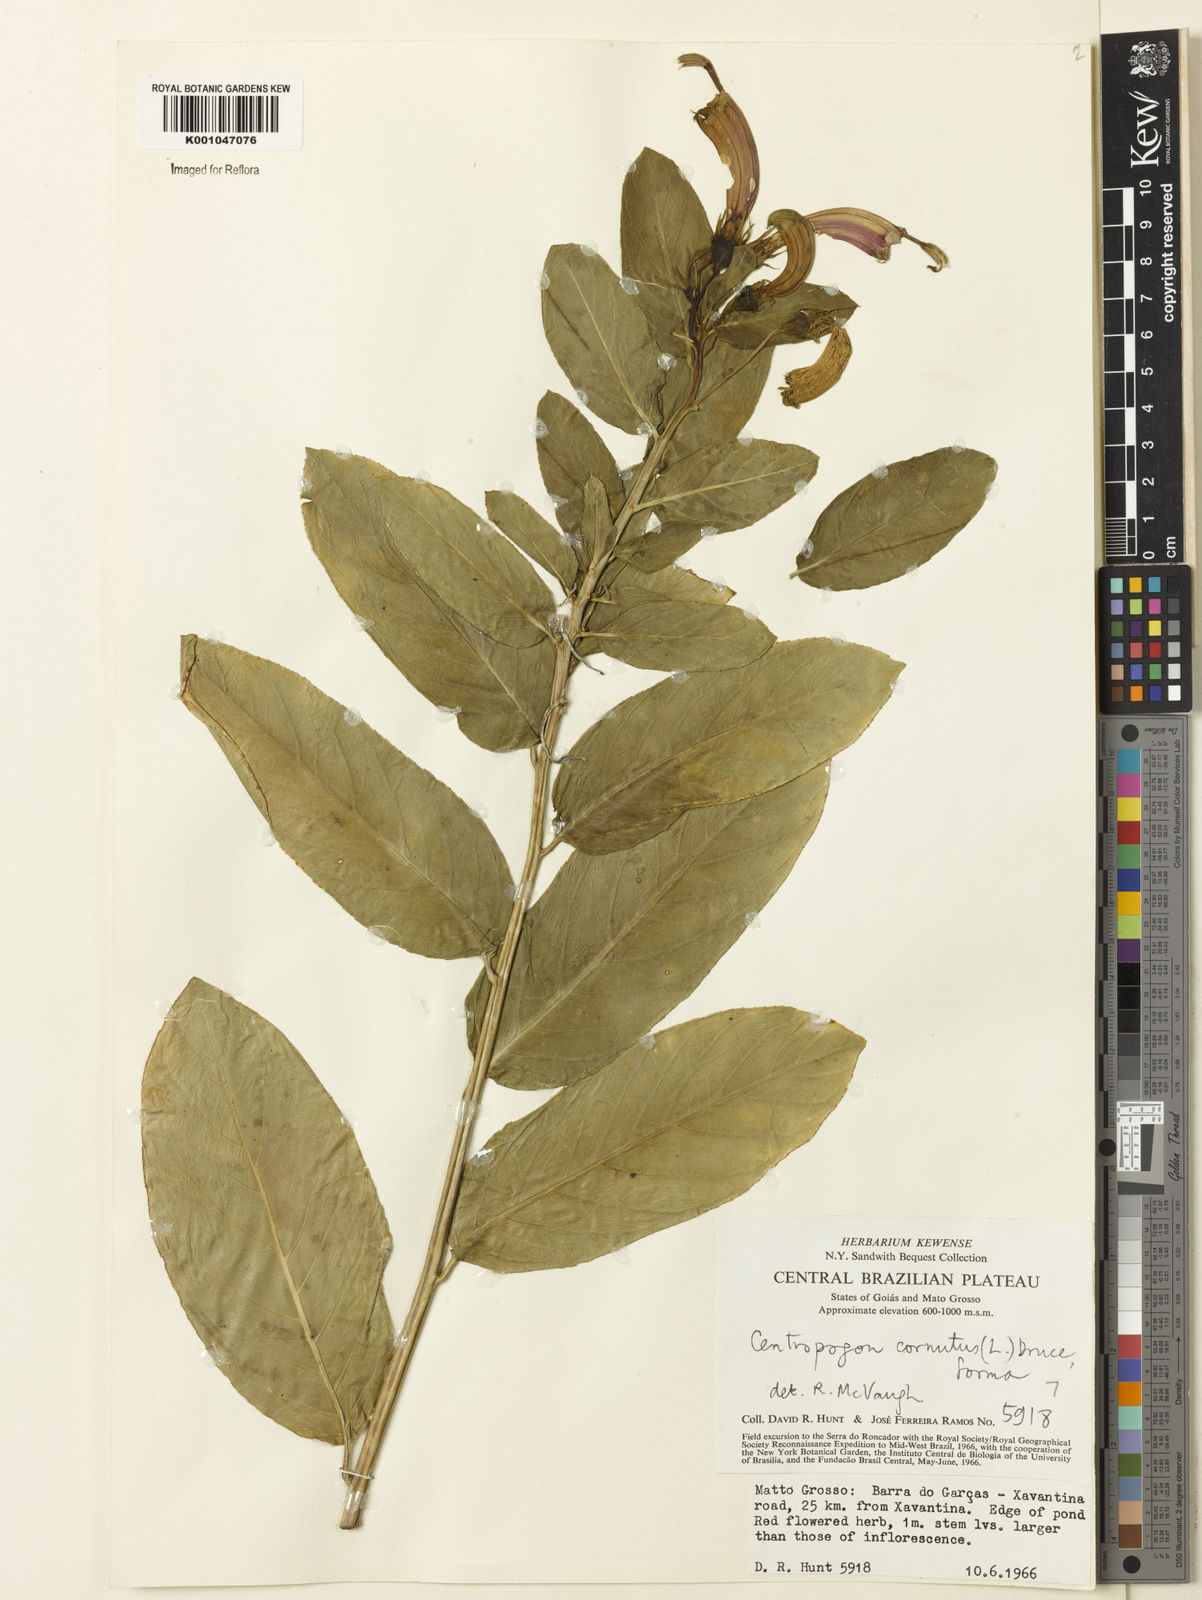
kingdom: Plantae
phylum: Tracheophyta
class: Magnoliopsida
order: Asterales
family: Campanulaceae
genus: Centropogon
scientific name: Centropogon cornutus
